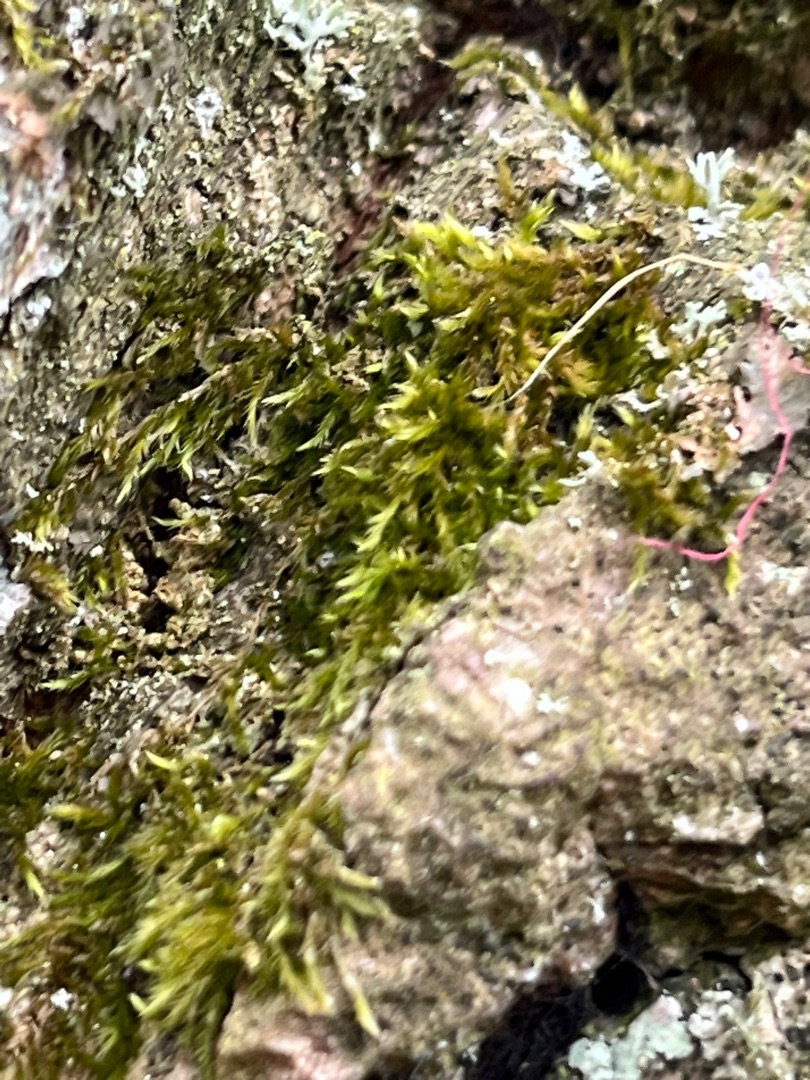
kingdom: Plantae
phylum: Bryophyta
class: Bryopsida
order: Hypnales
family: Hypnaceae
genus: Hypnum
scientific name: Hypnum
